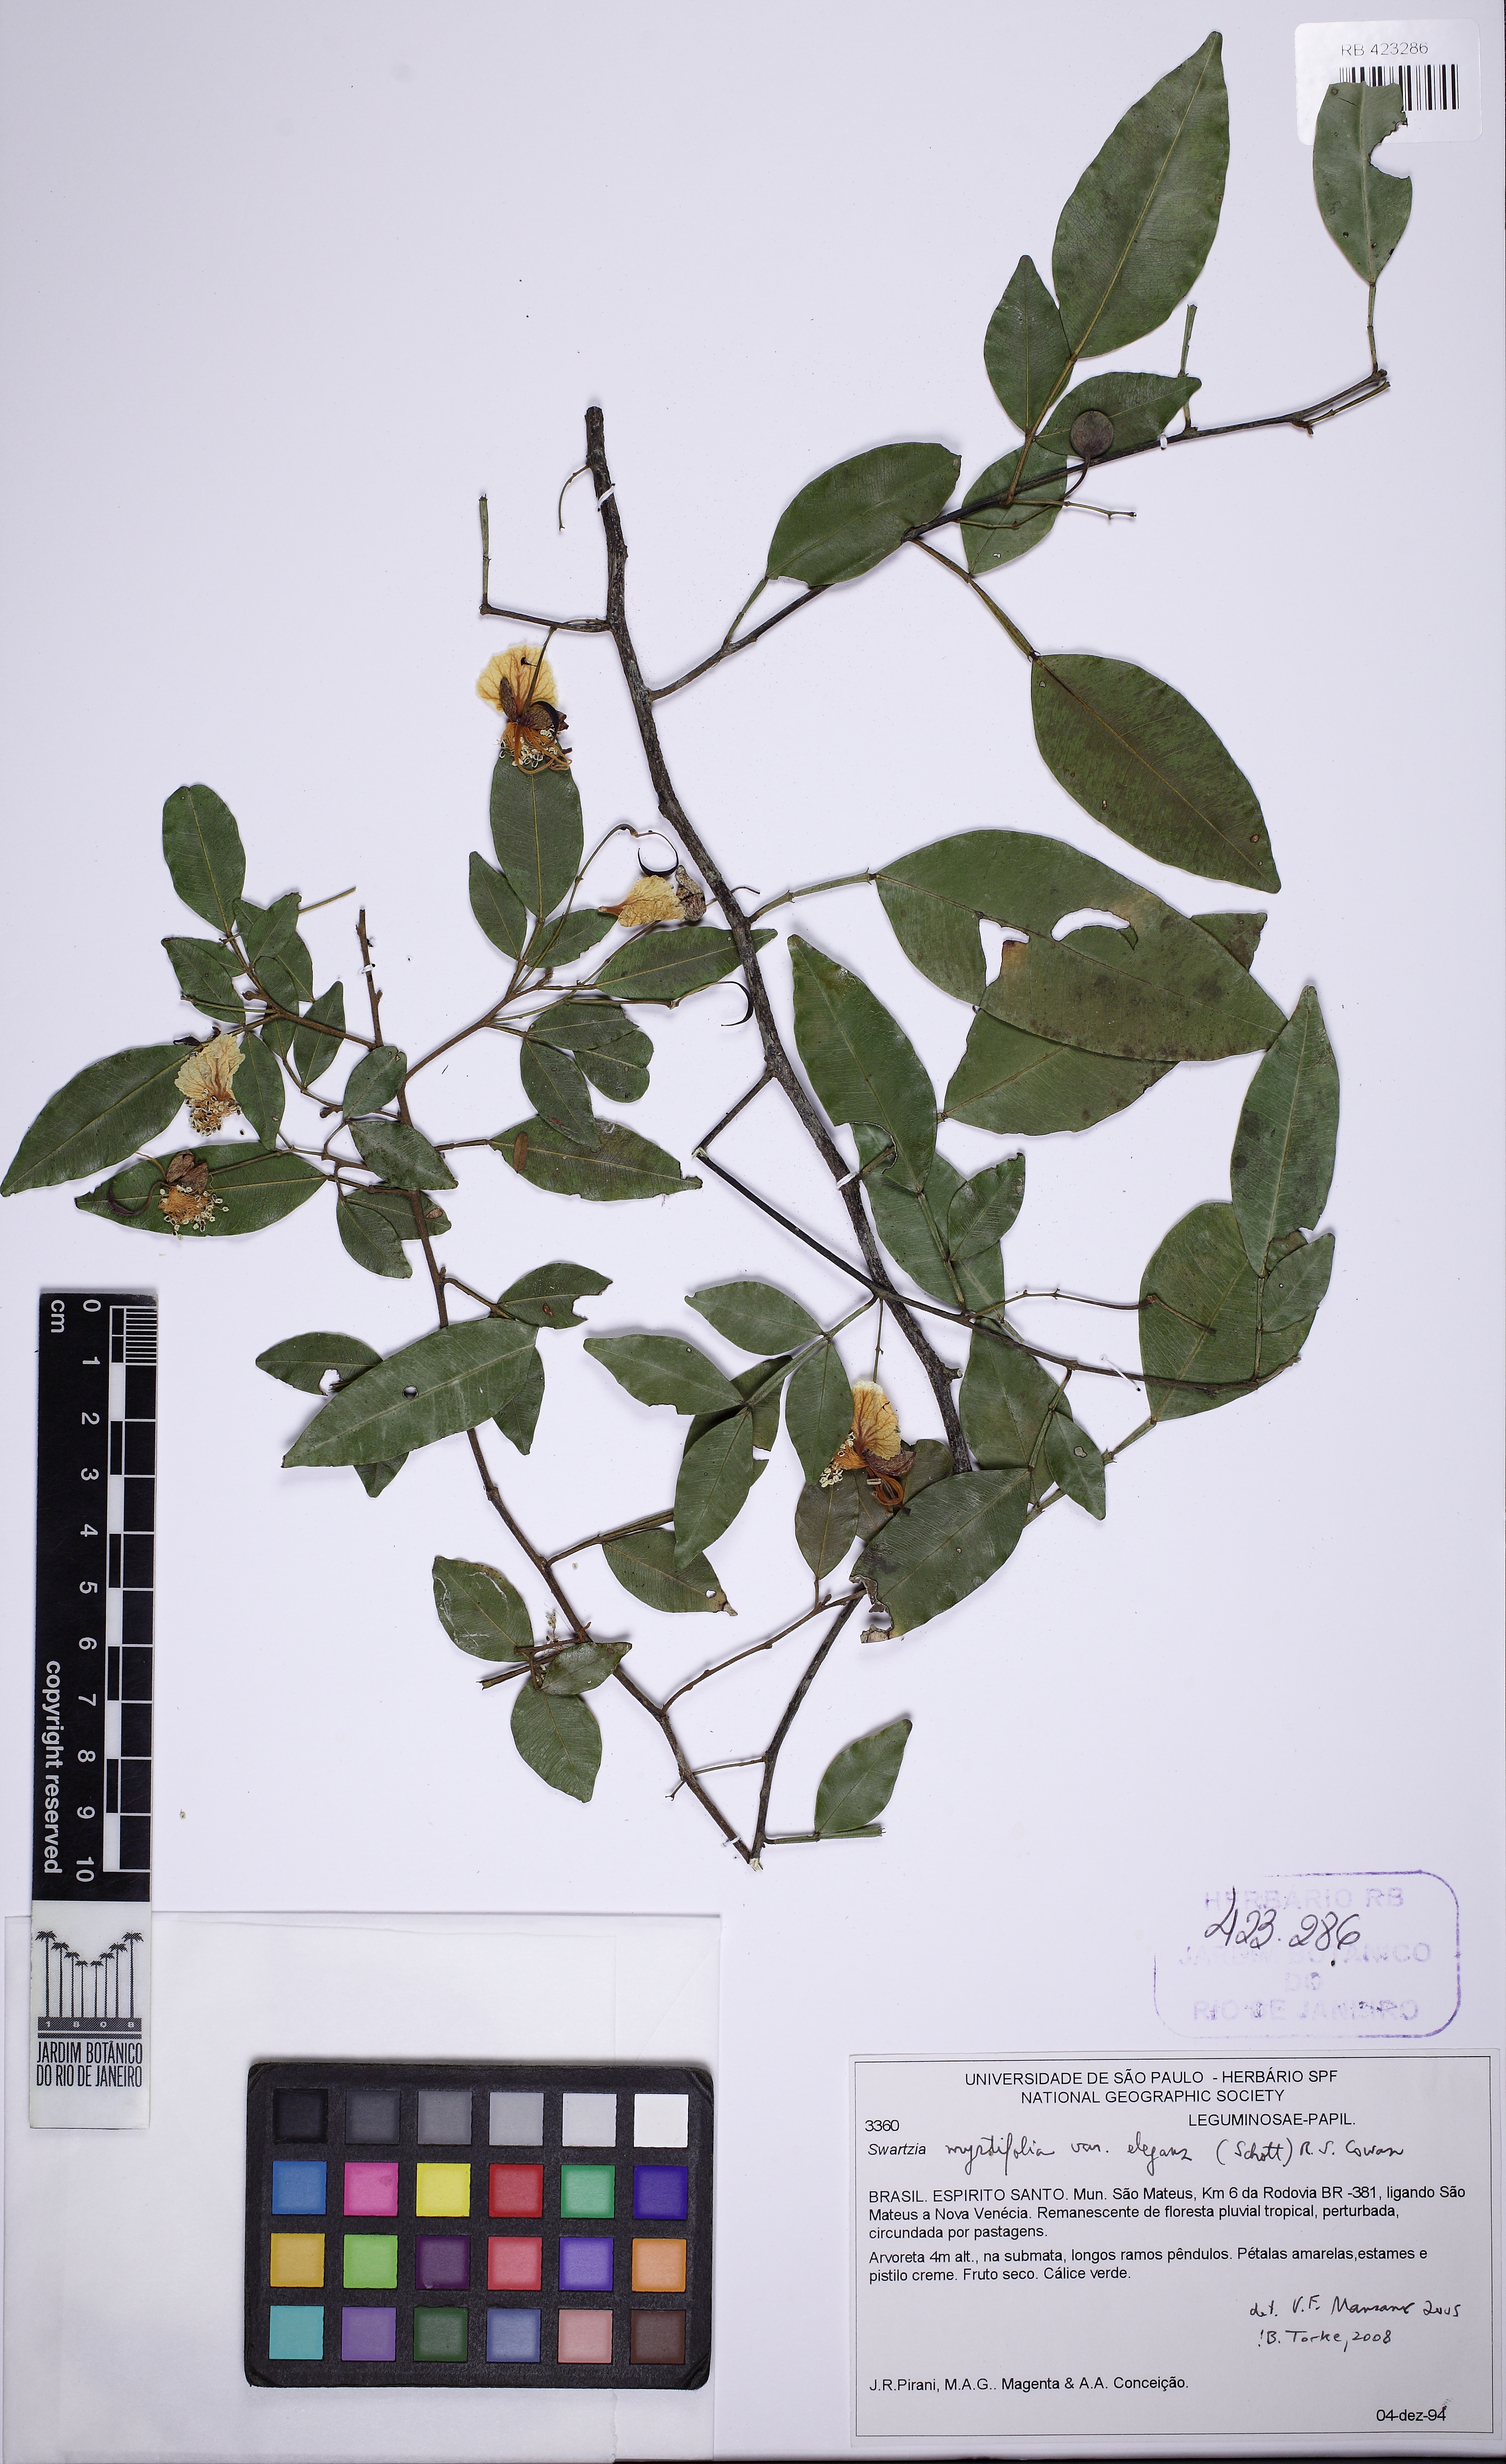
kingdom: Plantae
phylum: Tracheophyta
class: Magnoliopsida
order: Fabales
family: Fabaceae
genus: Swartzia
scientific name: Swartzia myrtifolia
